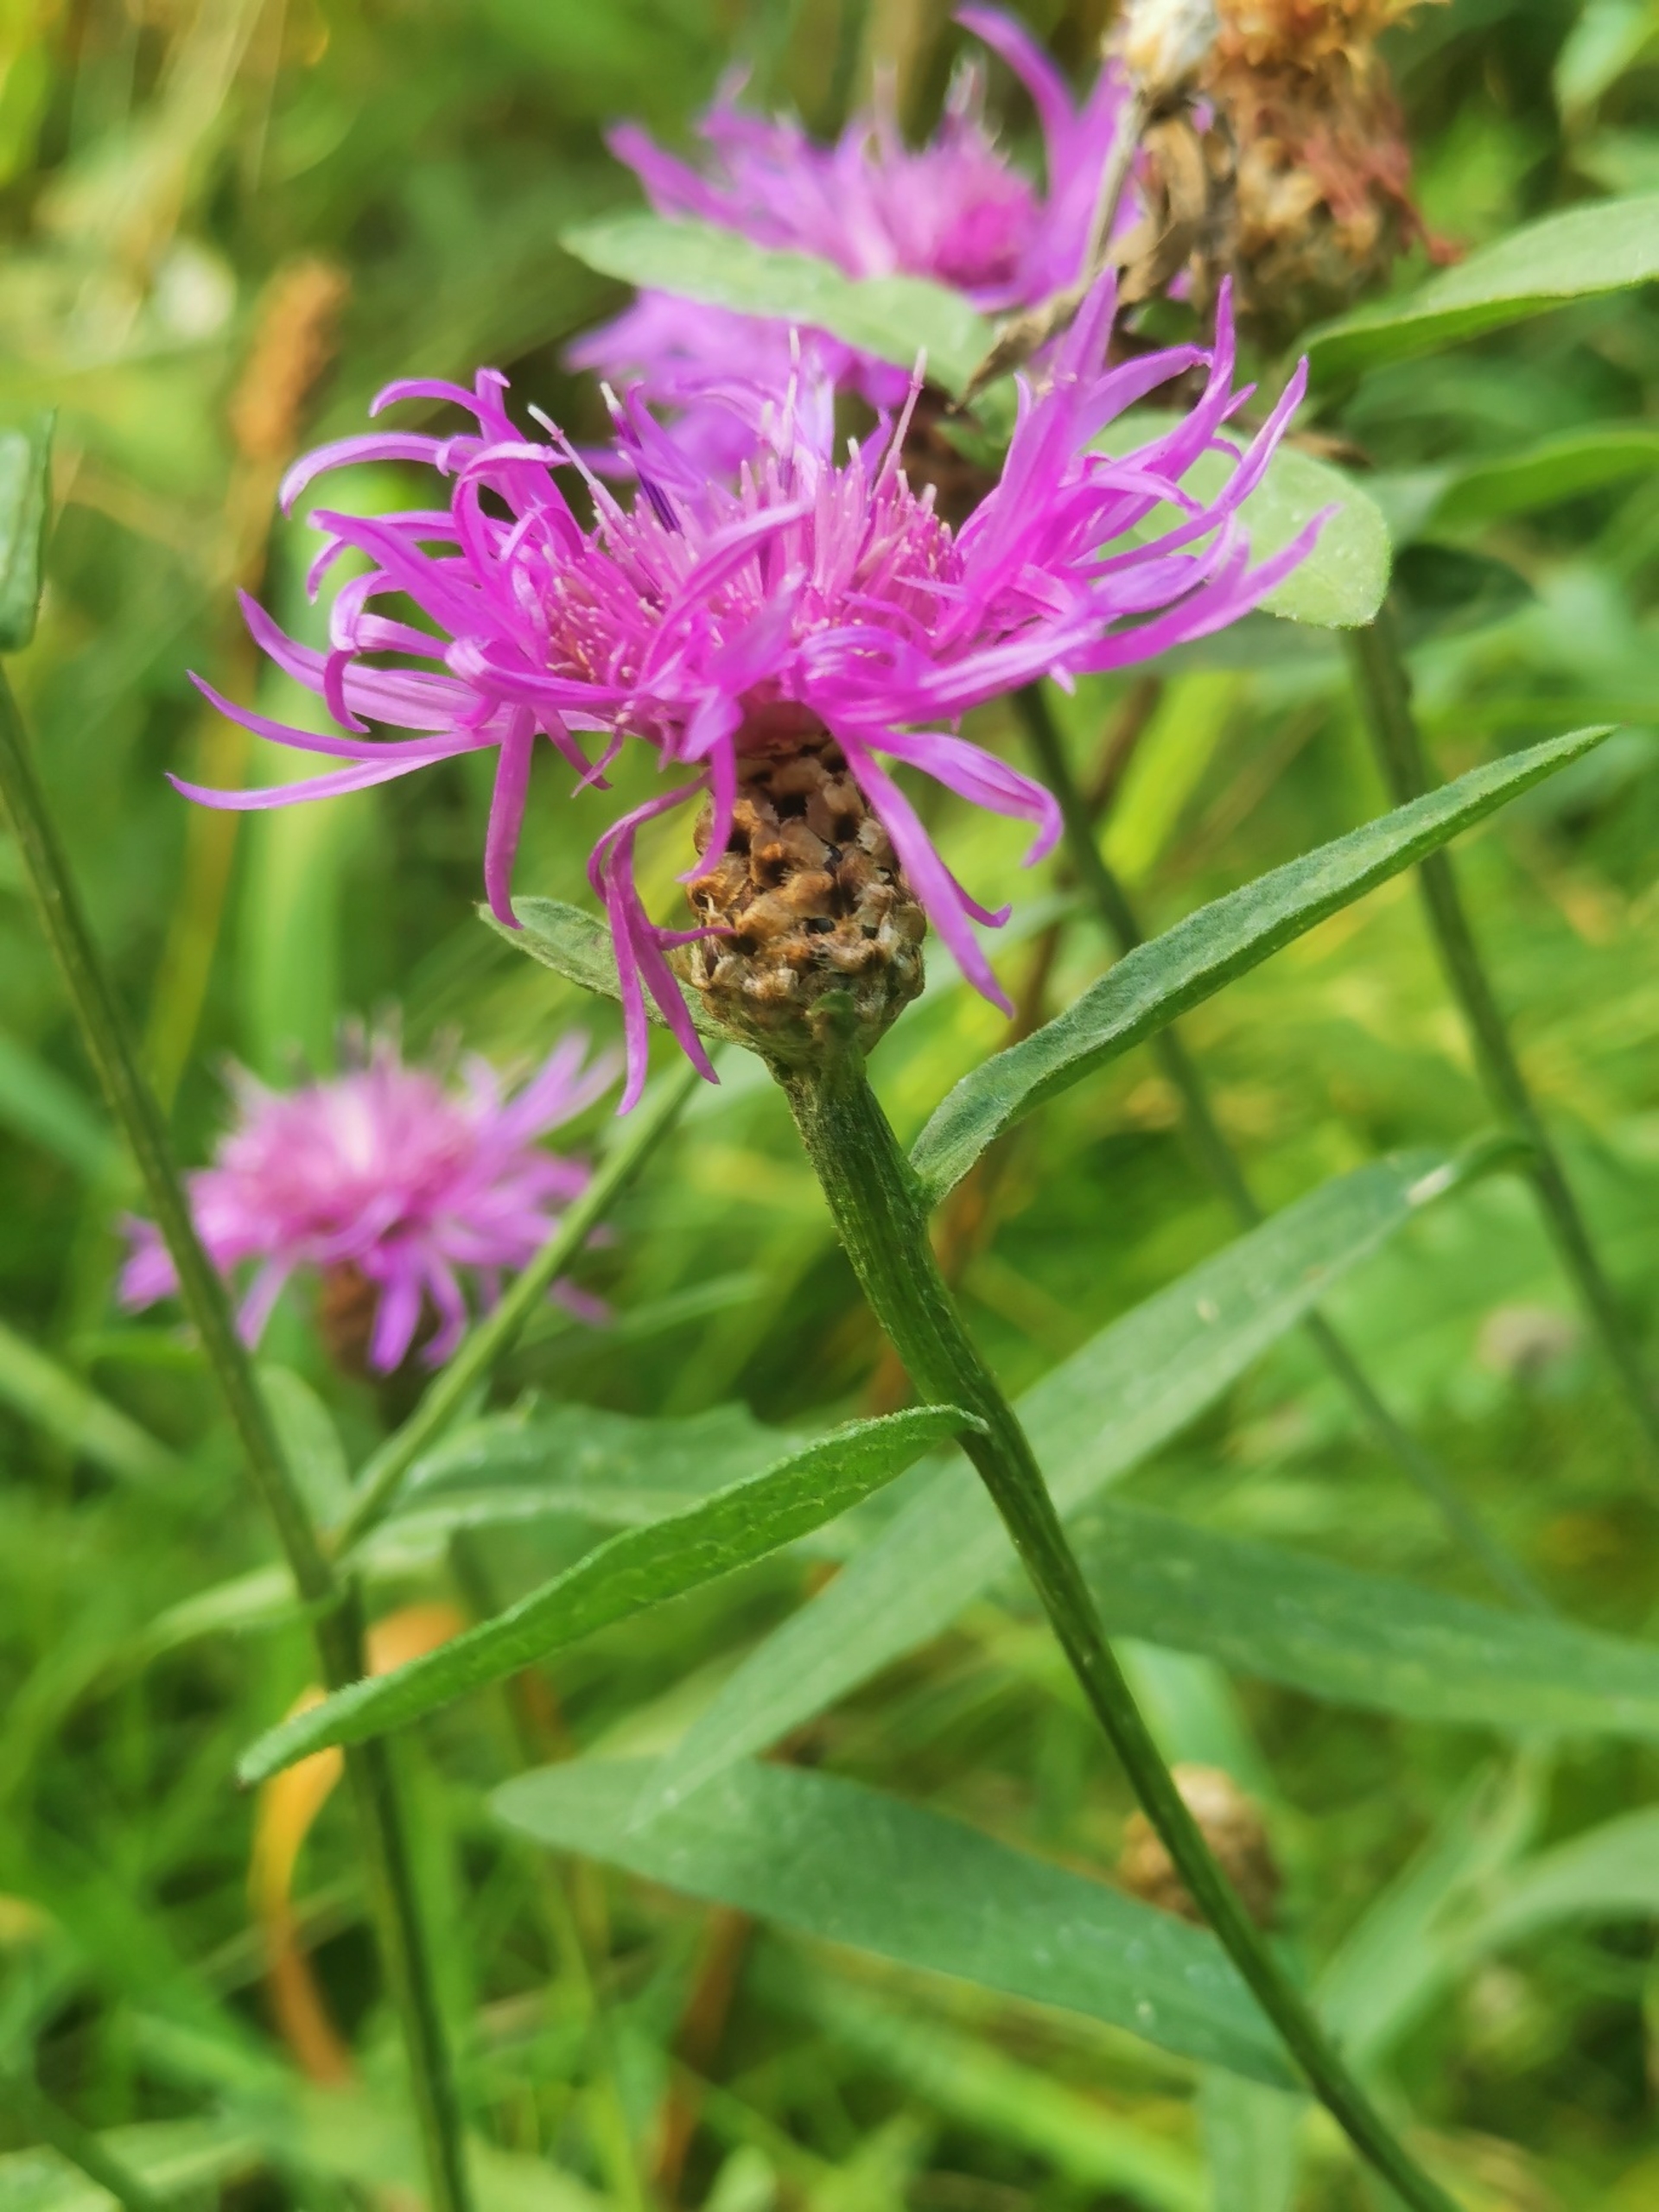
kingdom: Plantae
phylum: Tracheophyta
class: Magnoliopsida
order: Asterales
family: Asteraceae
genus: Centaurea
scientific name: Centaurea jacea
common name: Almindelig knopurt
